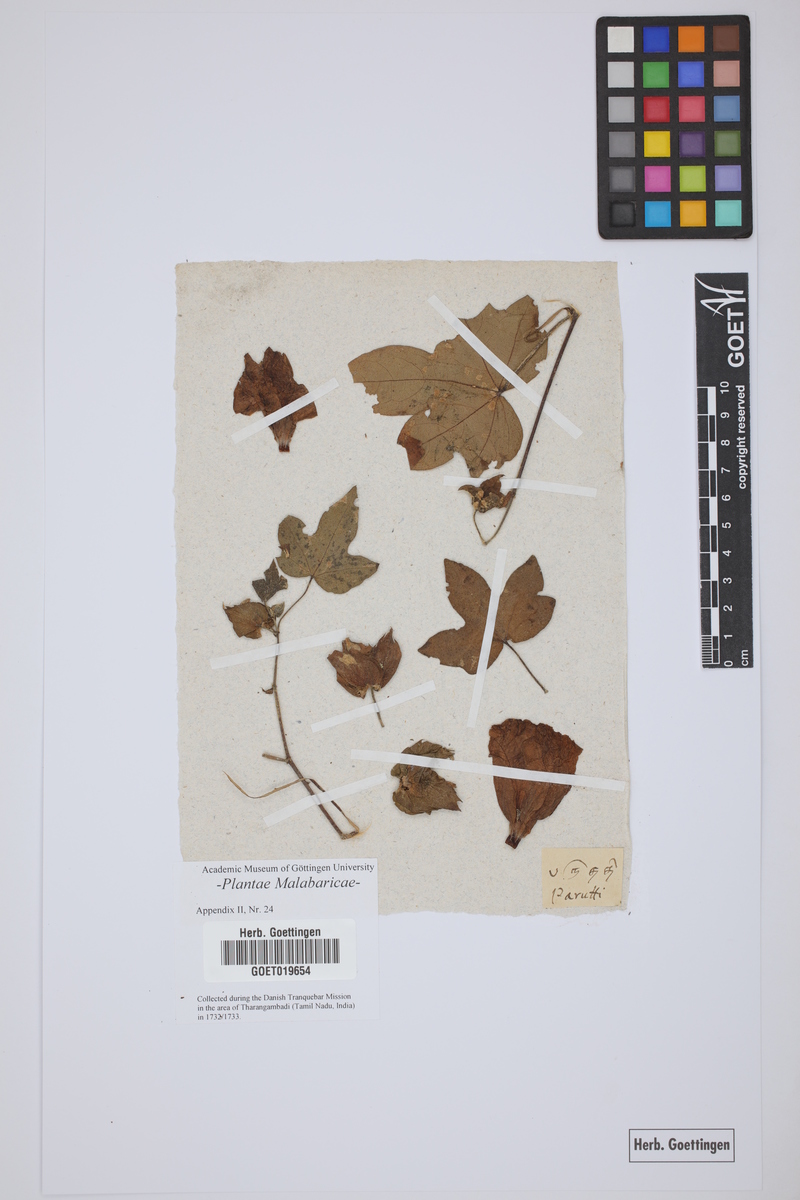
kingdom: Plantae
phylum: Tracheophyta
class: Magnoliopsida
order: Malvales
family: Malvaceae
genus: Gossypium
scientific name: Gossypium herbaceum
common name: Levant cotton
